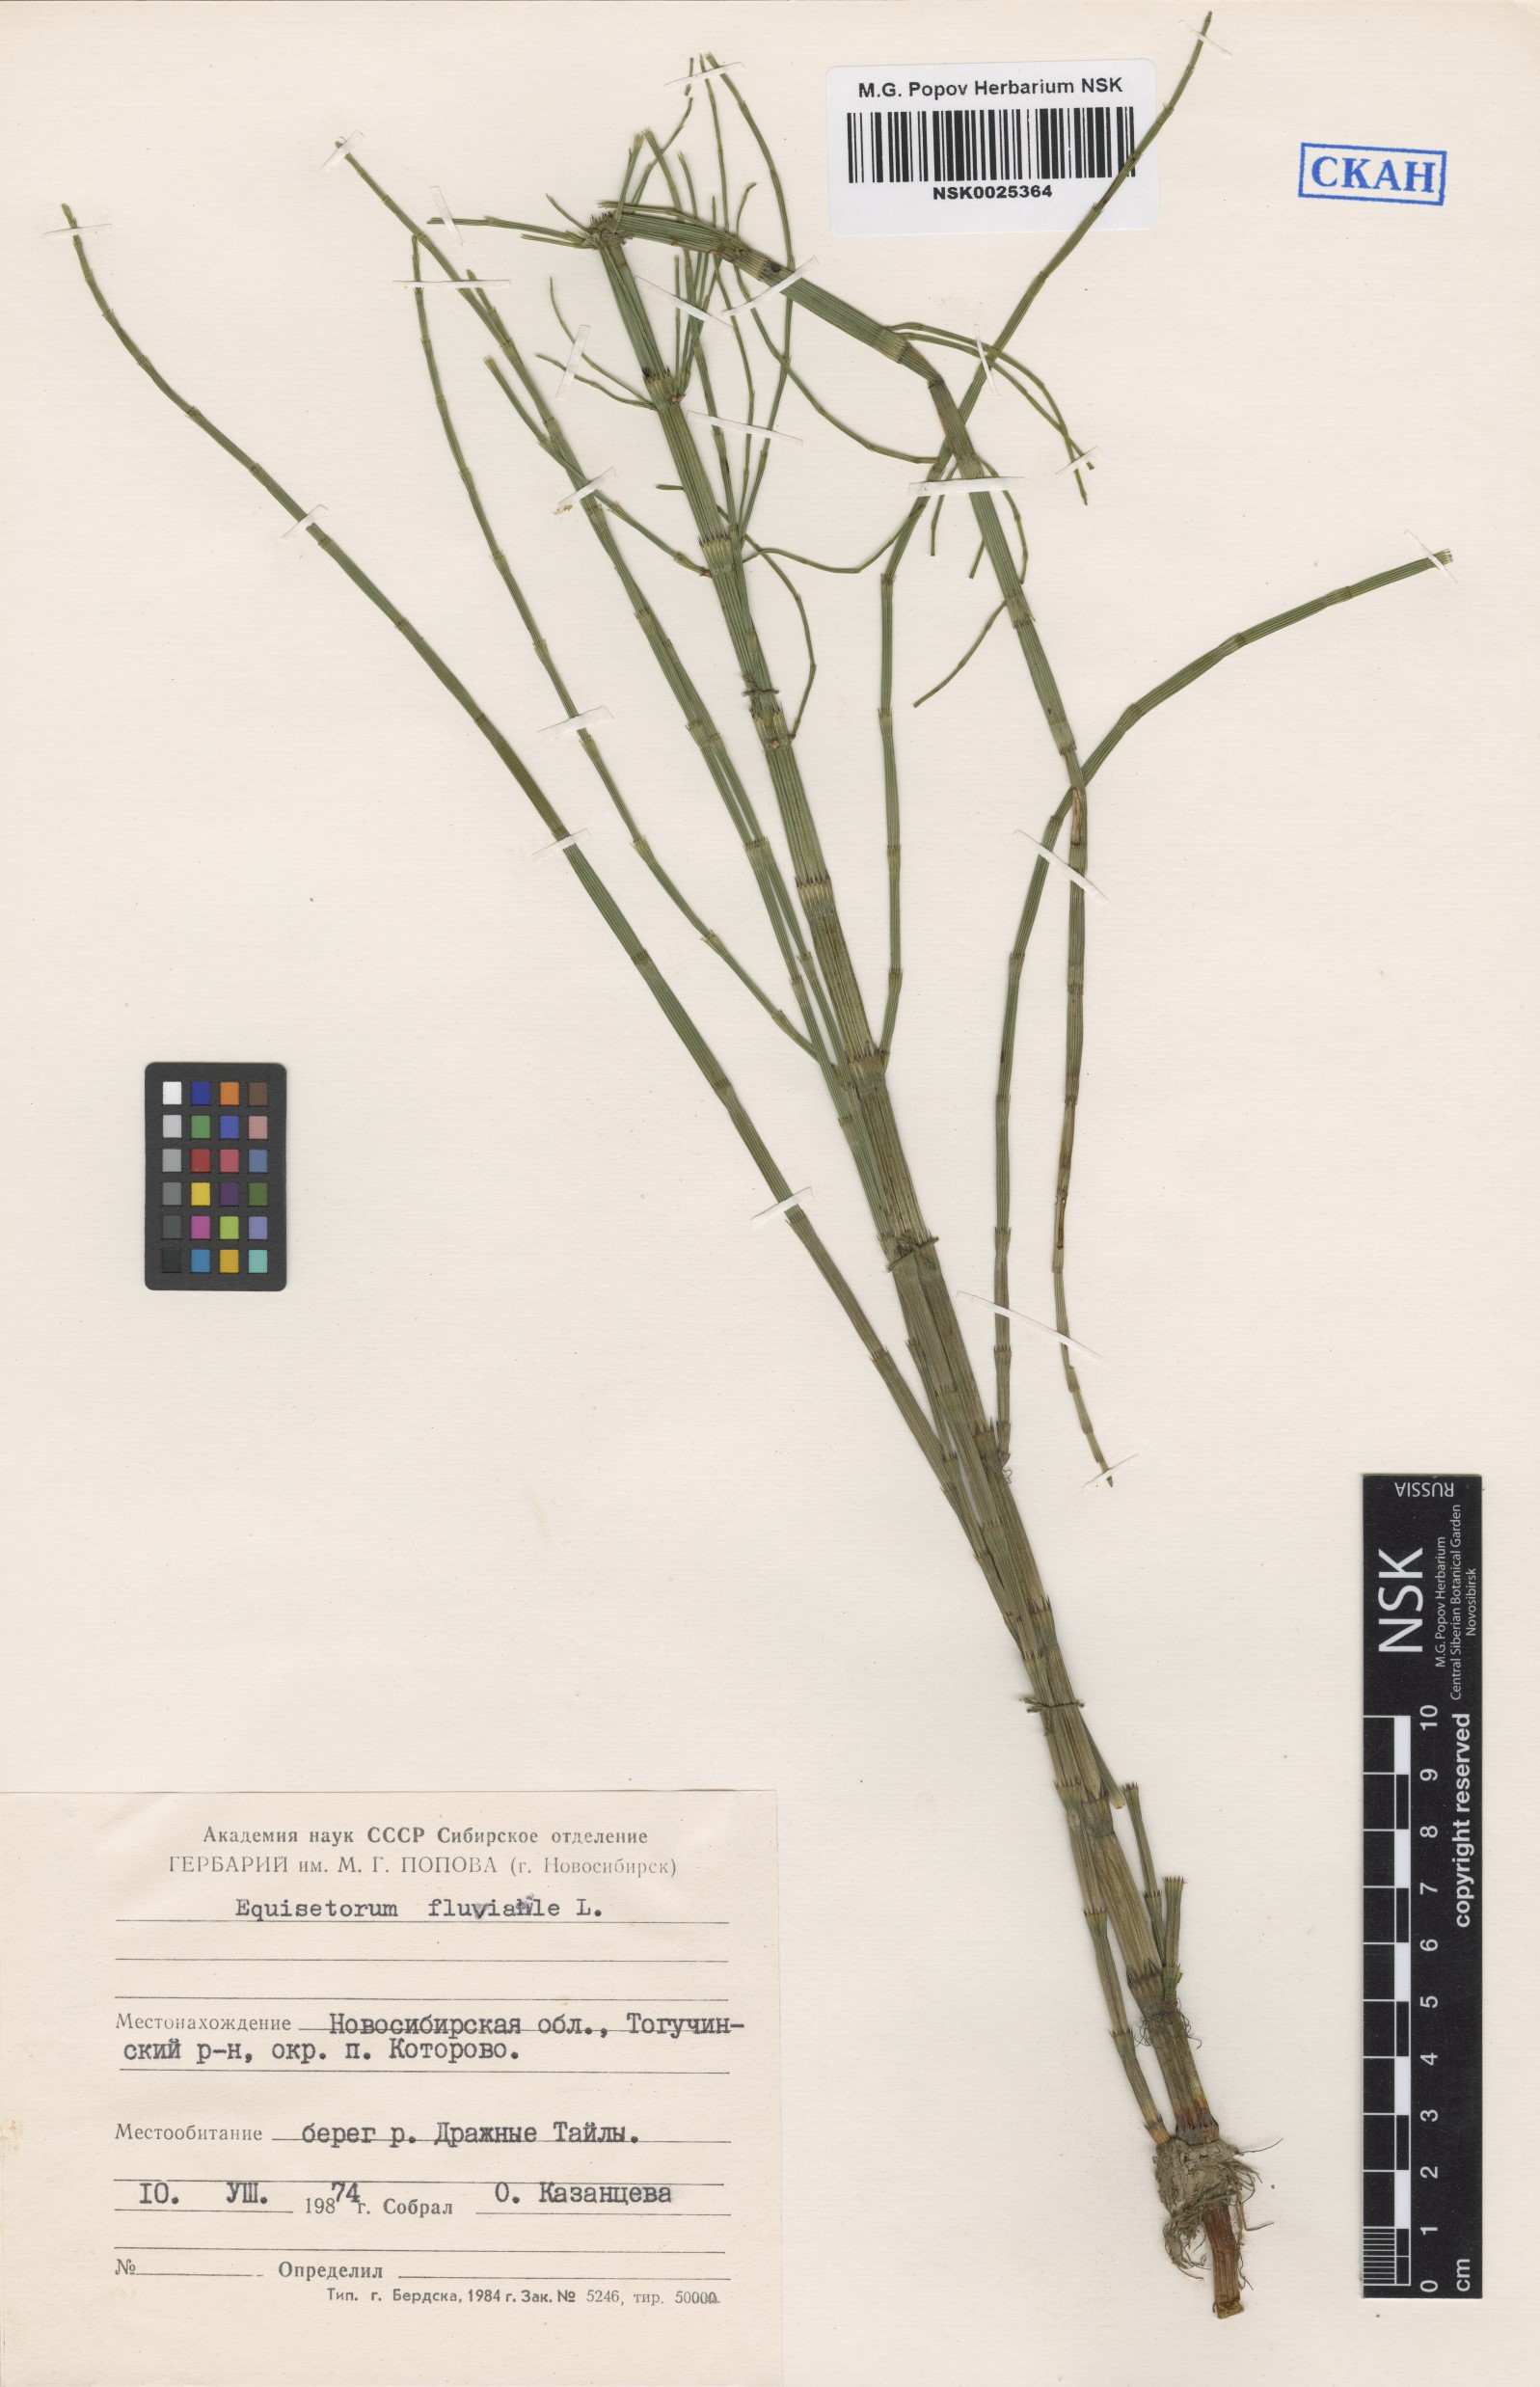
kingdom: Plantae
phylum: Tracheophyta
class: Polypodiopsida
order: Equisetales
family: Equisetaceae
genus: Equisetum
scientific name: Equisetum fluviatile
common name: Water horsetail
